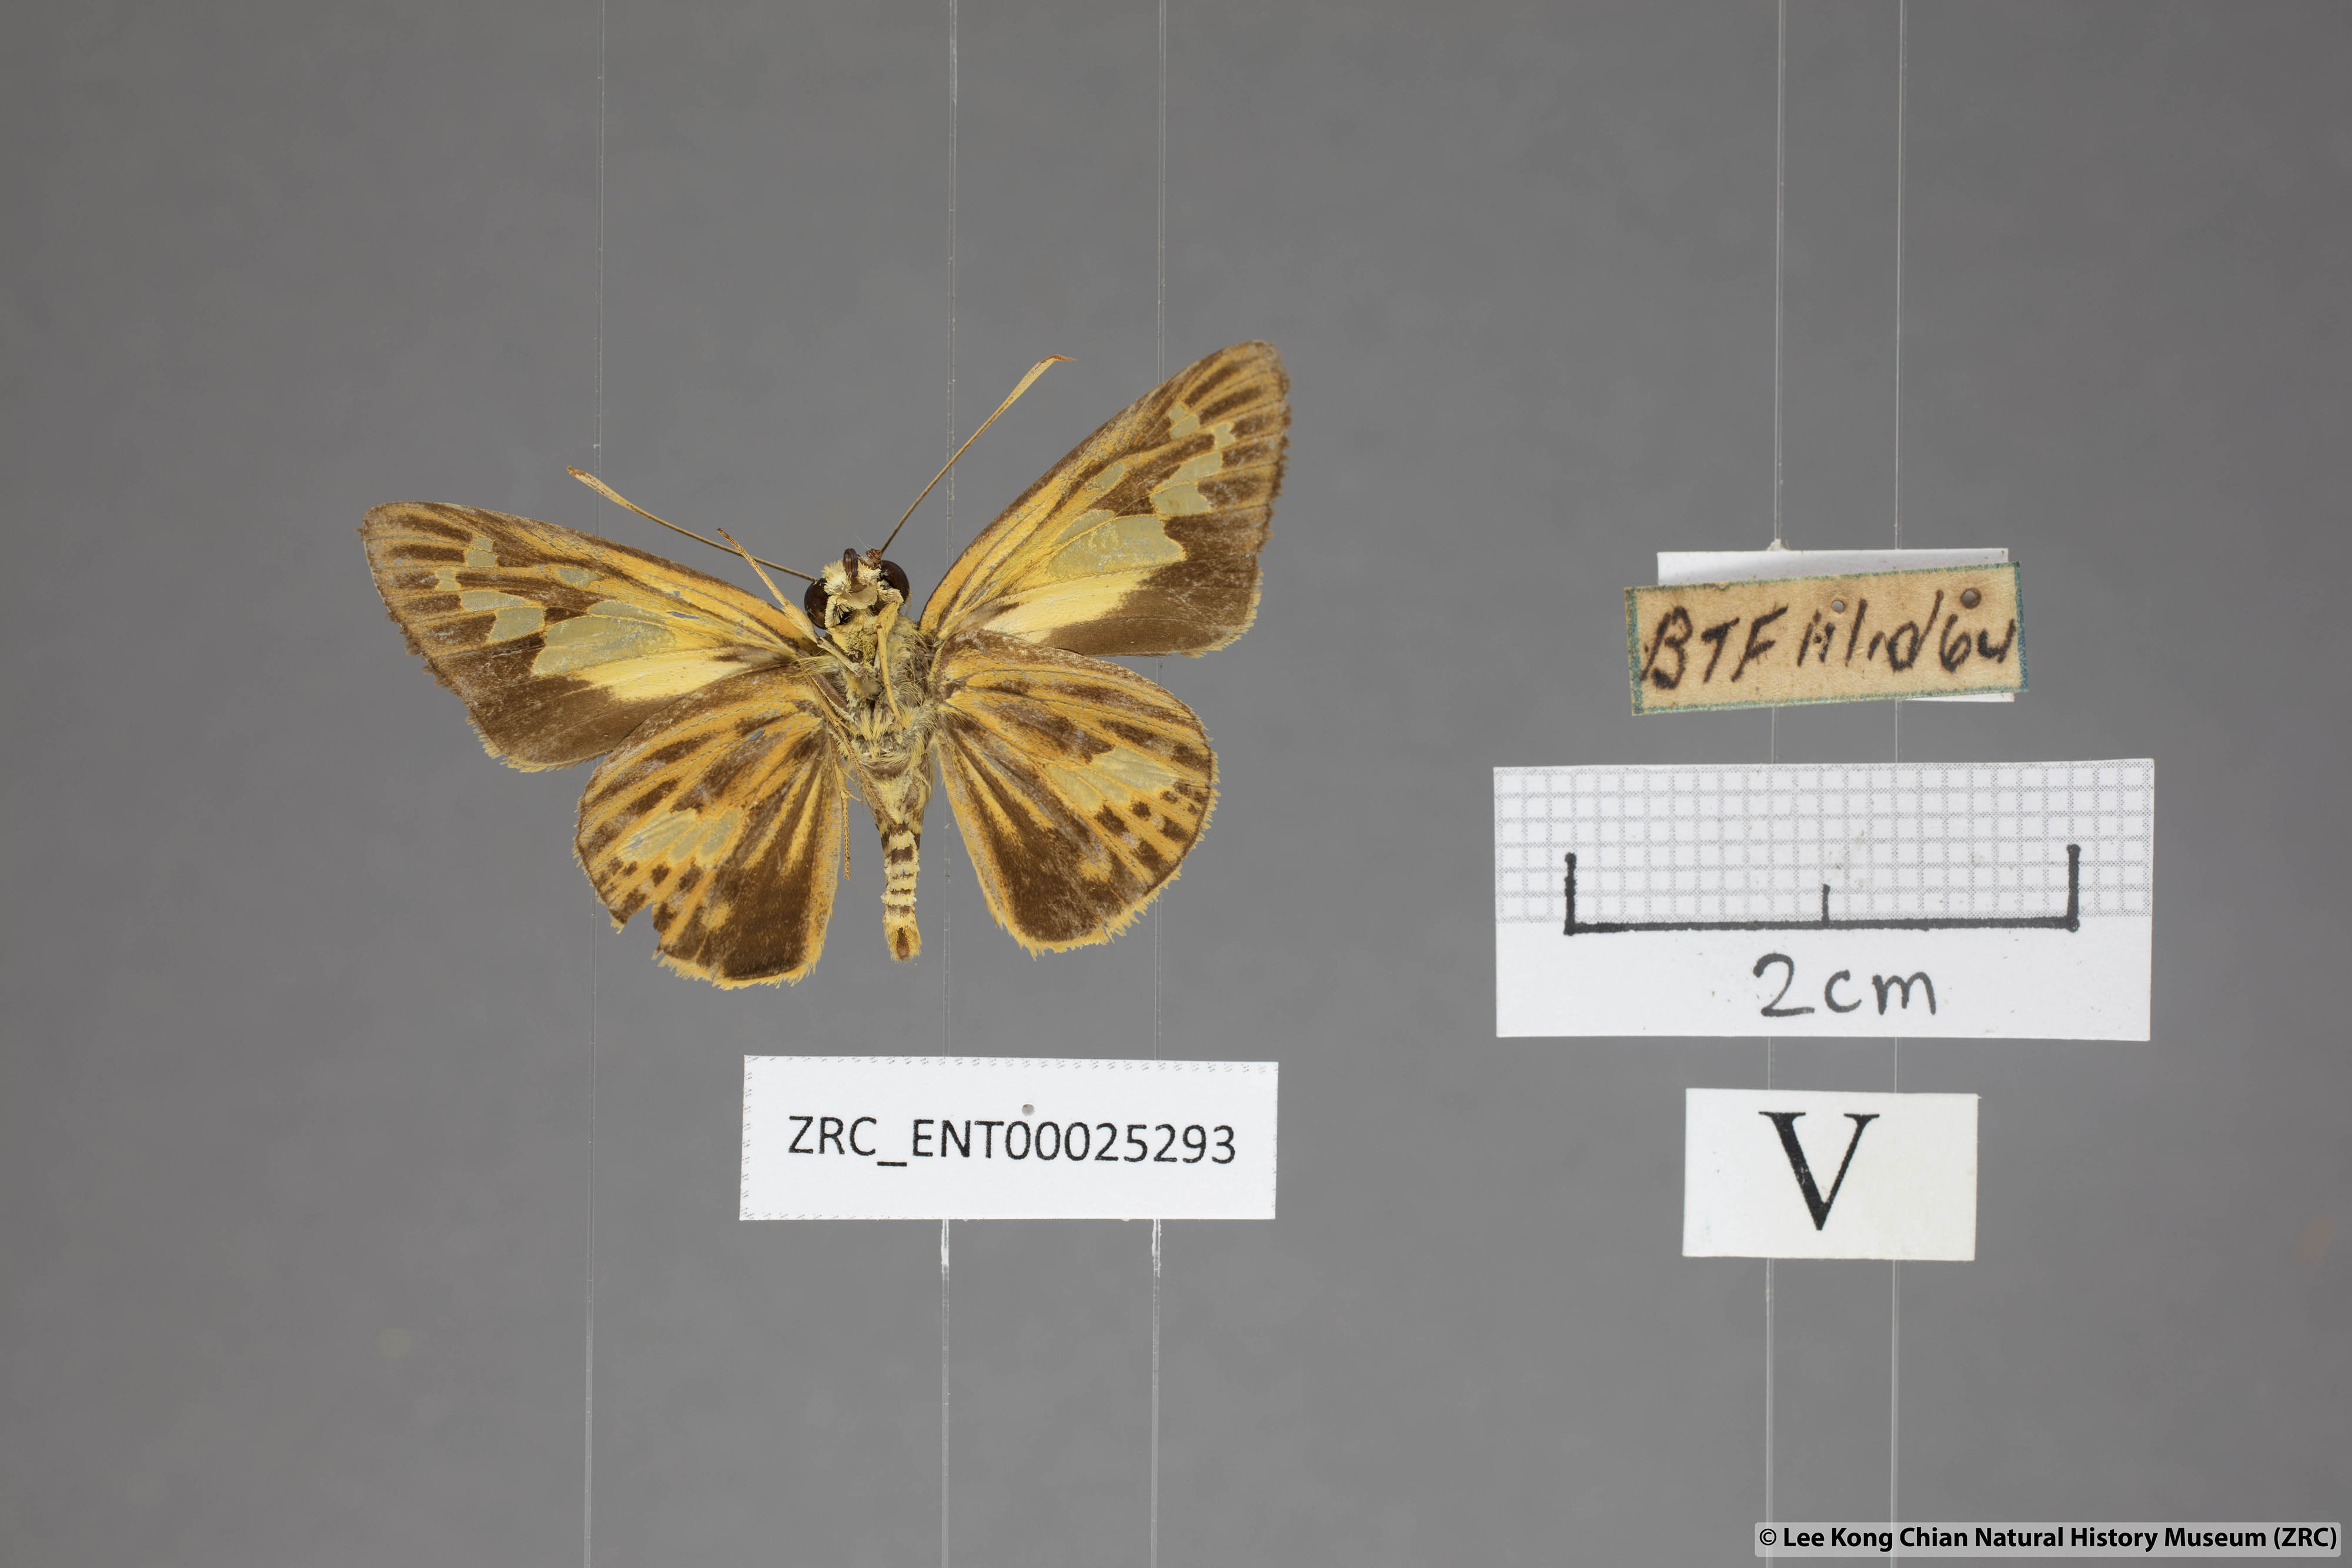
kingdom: Animalia
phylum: Arthropoda
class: Insecta
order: Lepidoptera
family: Hesperiidae
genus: Pyroneura
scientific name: Pyroneura
